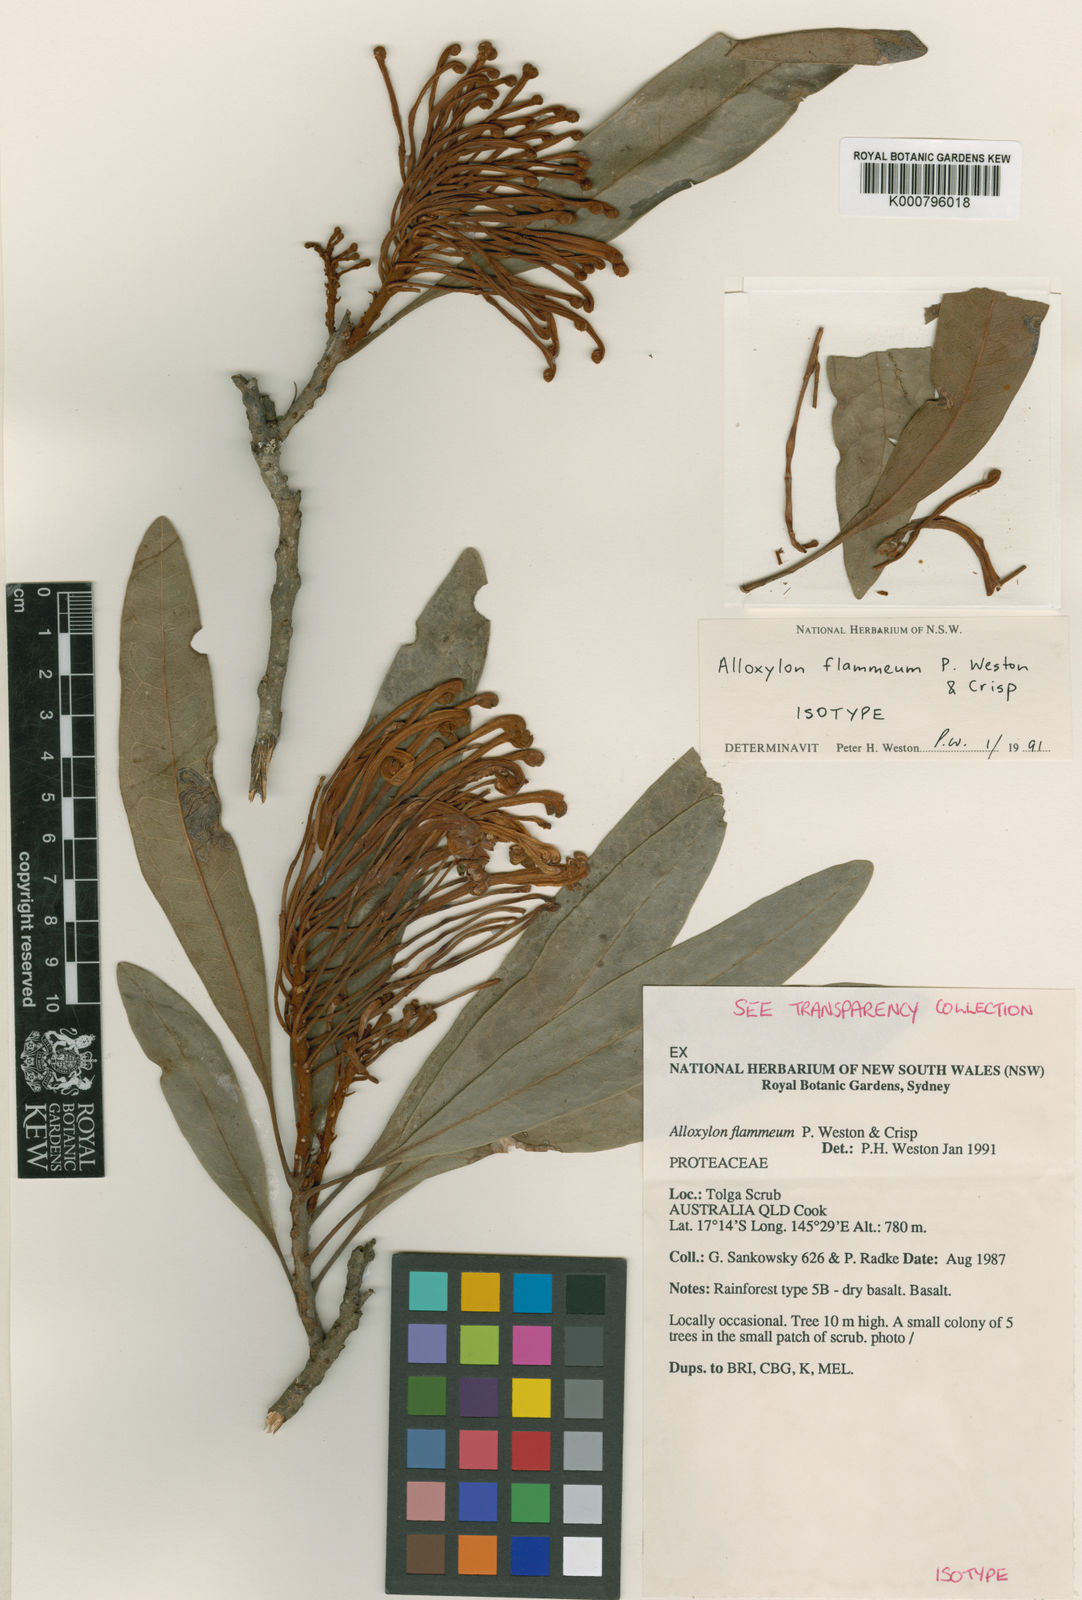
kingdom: Plantae
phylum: Tracheophyta
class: Magnoliopsida
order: Proteales
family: Proteaceae
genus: Alloxylon
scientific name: Alloxylon flammeum
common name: Queensland-waratah
